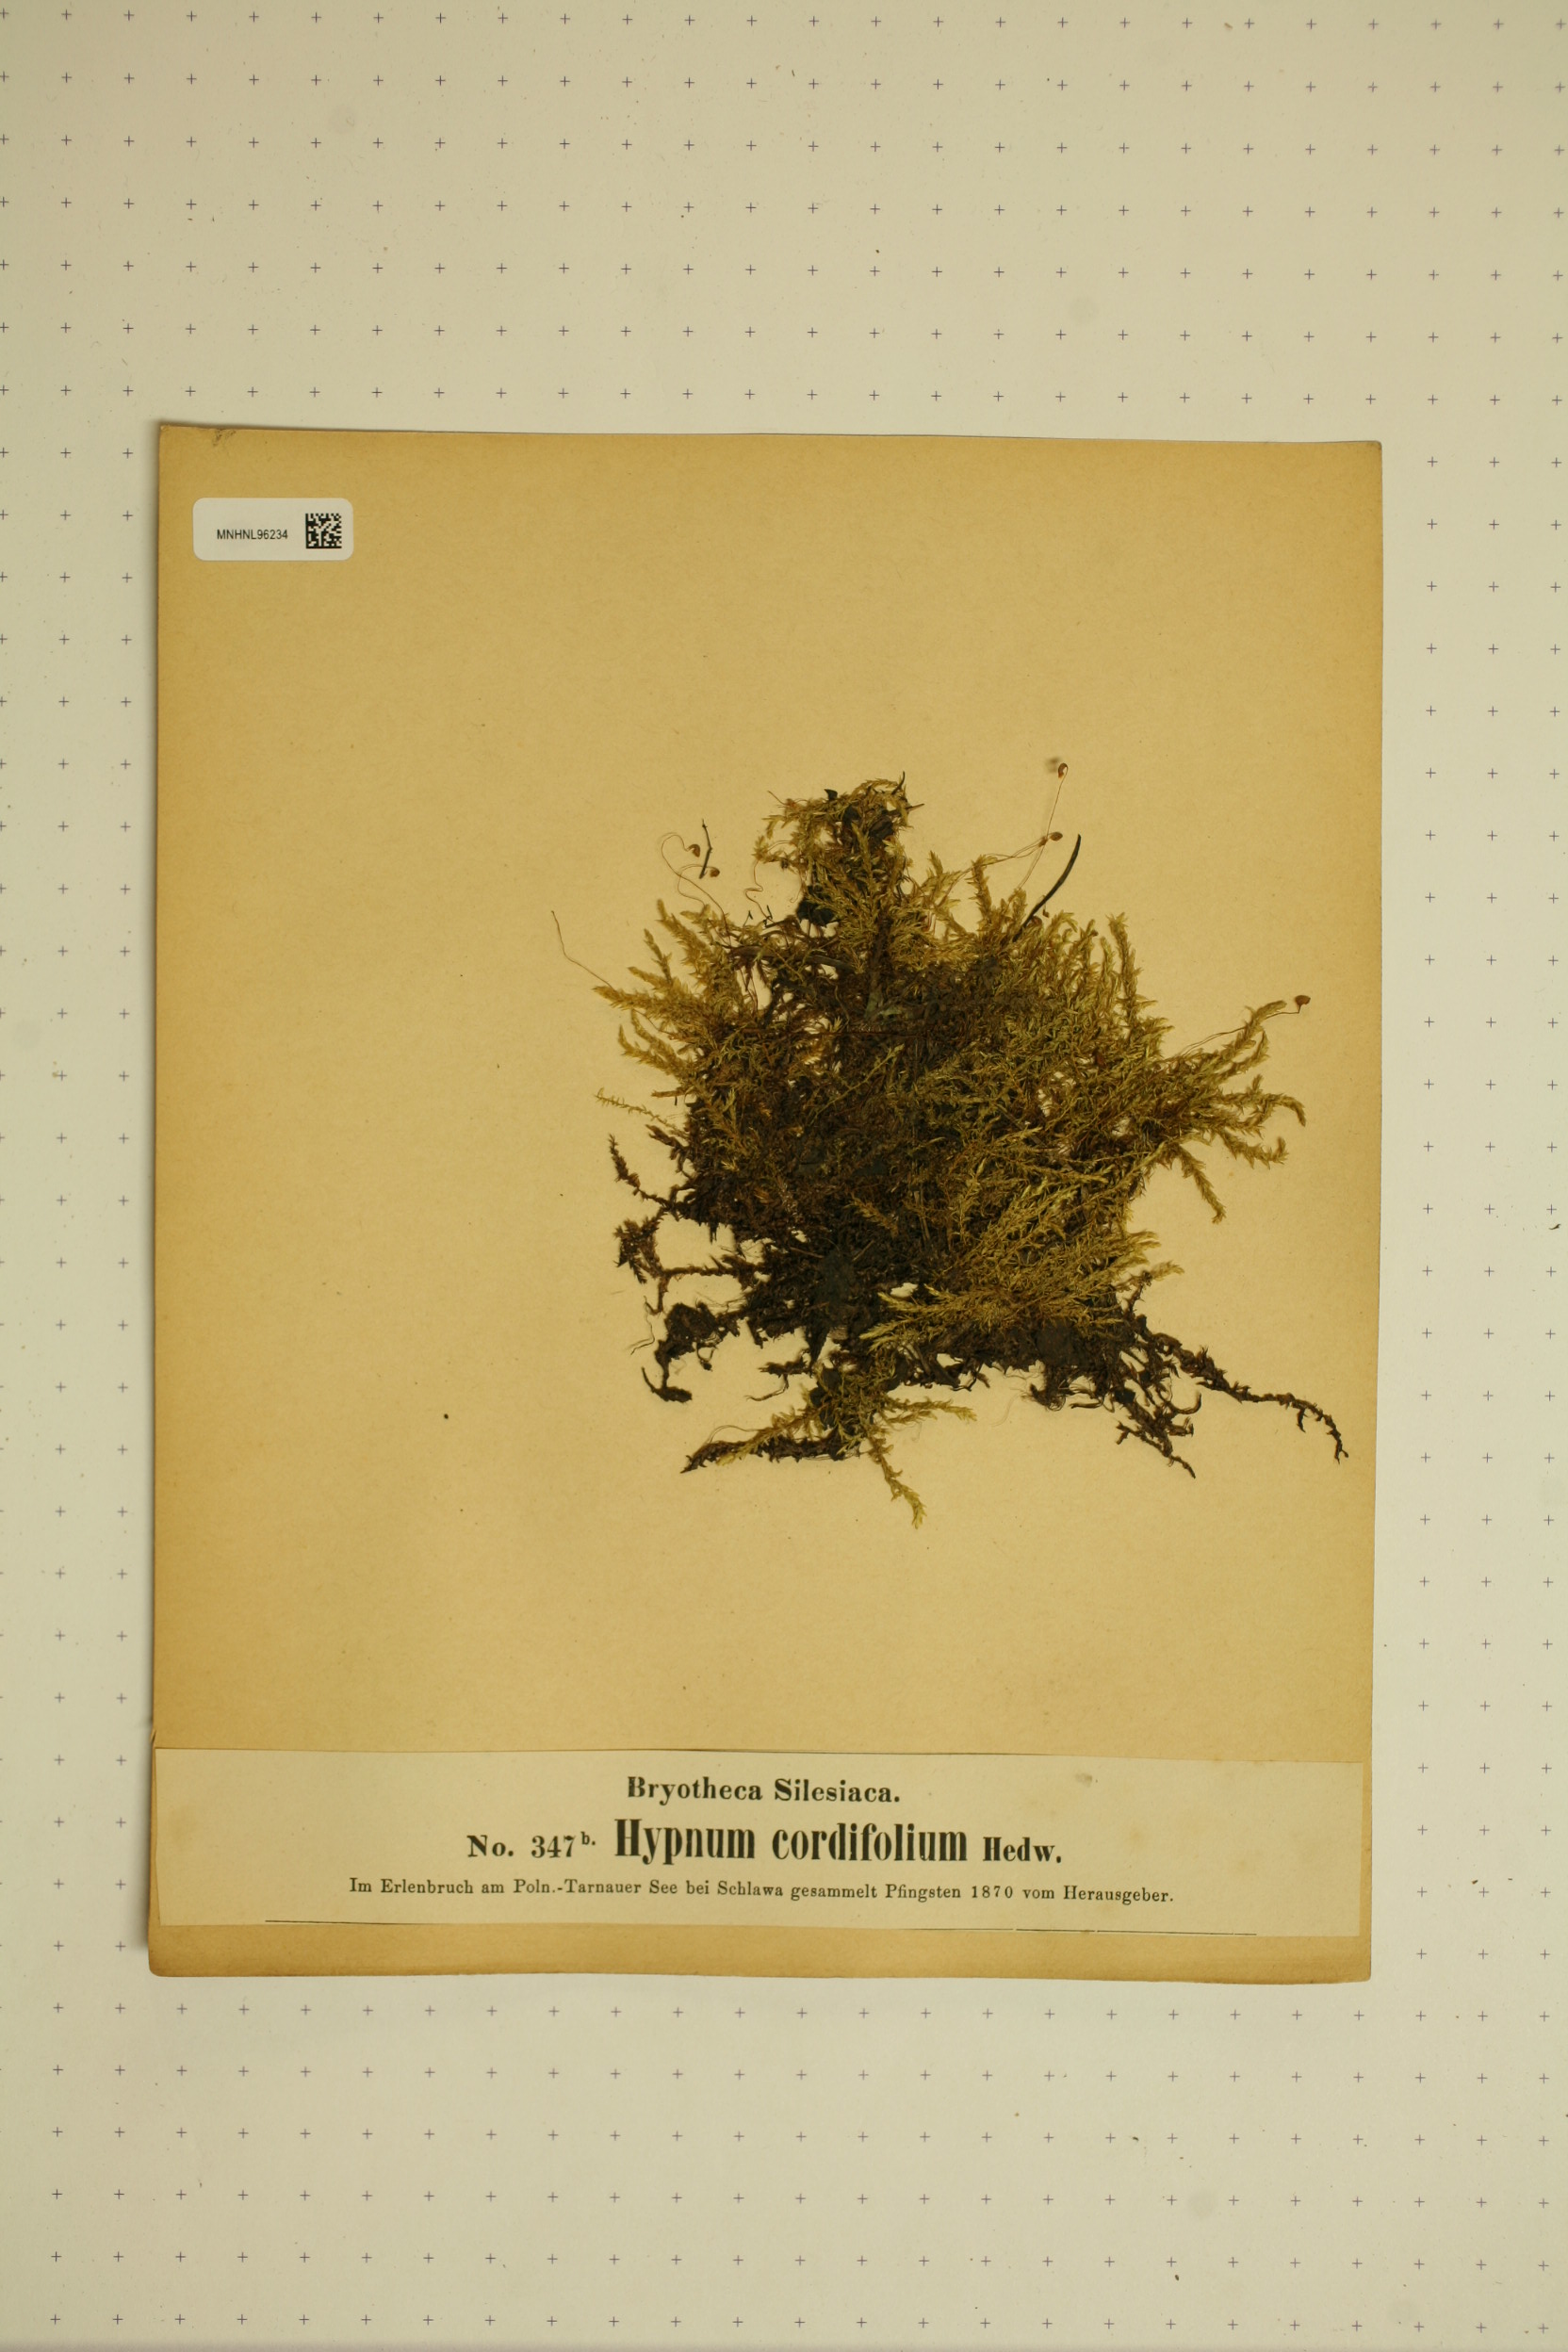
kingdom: Plantae
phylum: Bryophyta
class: Bryopsida
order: Hypnales
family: Calliergonaceae
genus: Calliergon
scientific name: Calliergon cordifolium
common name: Heart-leaved spear moss
